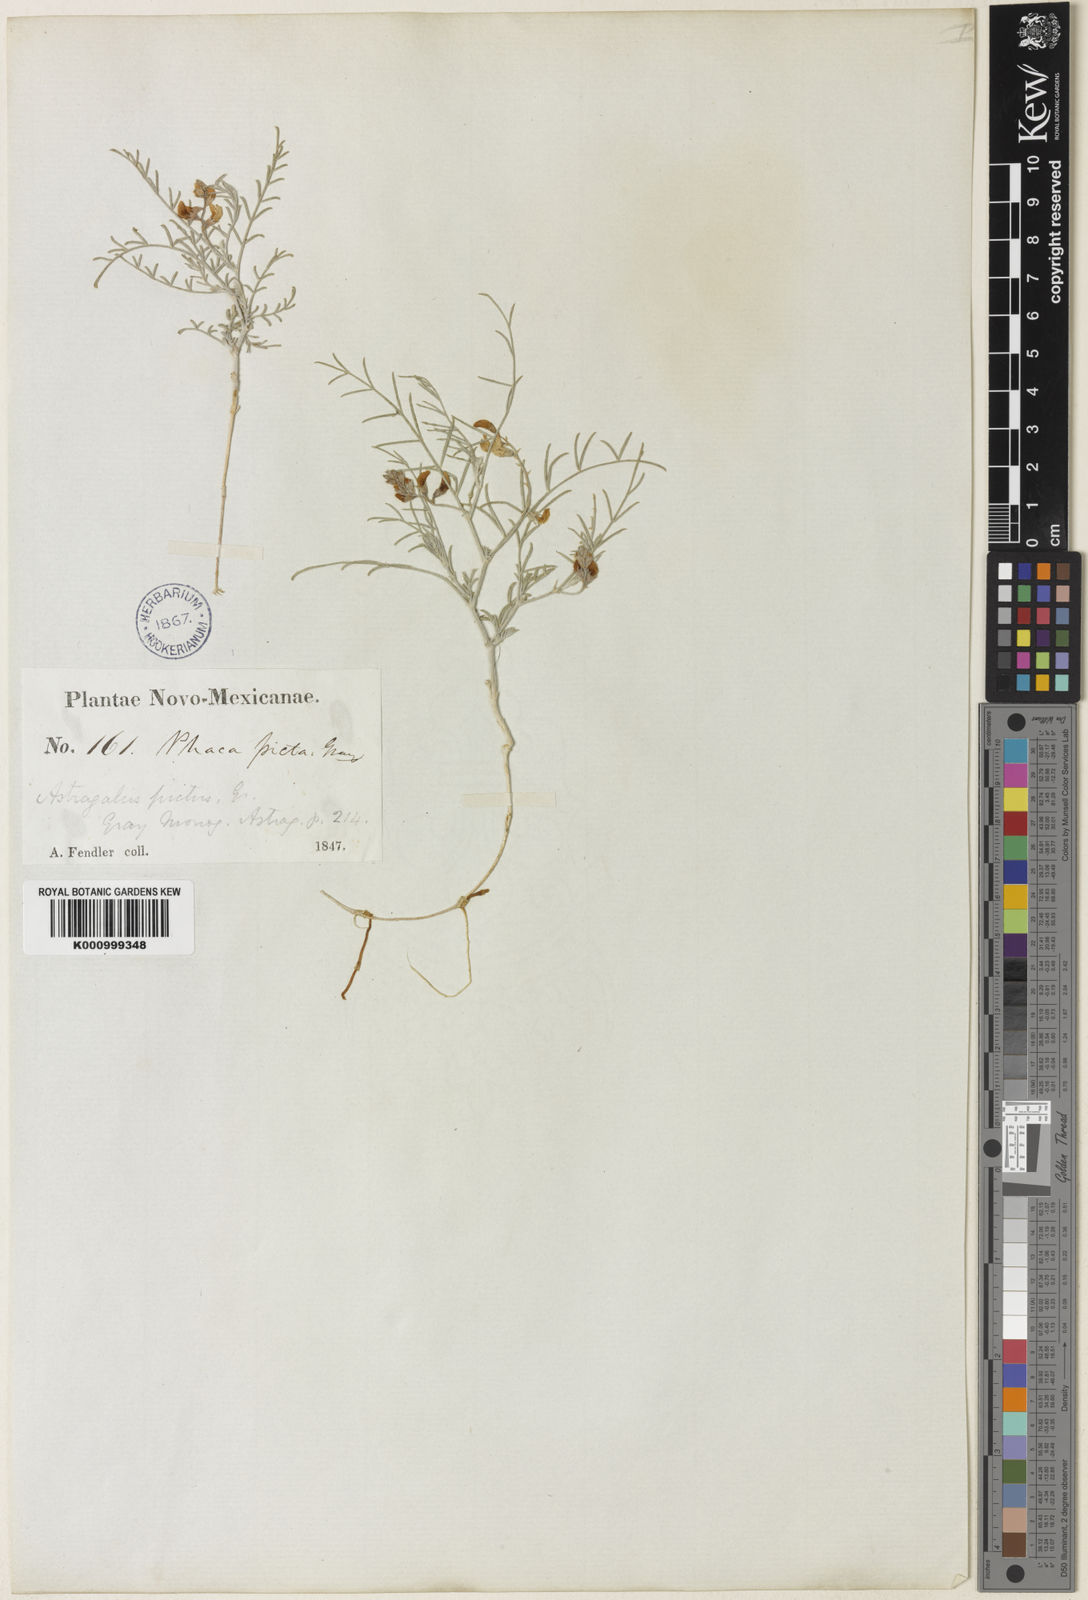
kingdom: Plantae
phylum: Tracheophyta
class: Magnoliopsida
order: Fabales
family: Fabaceae
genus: Astragalus
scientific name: Astragalus ceramicus
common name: Painted milk-vetch
